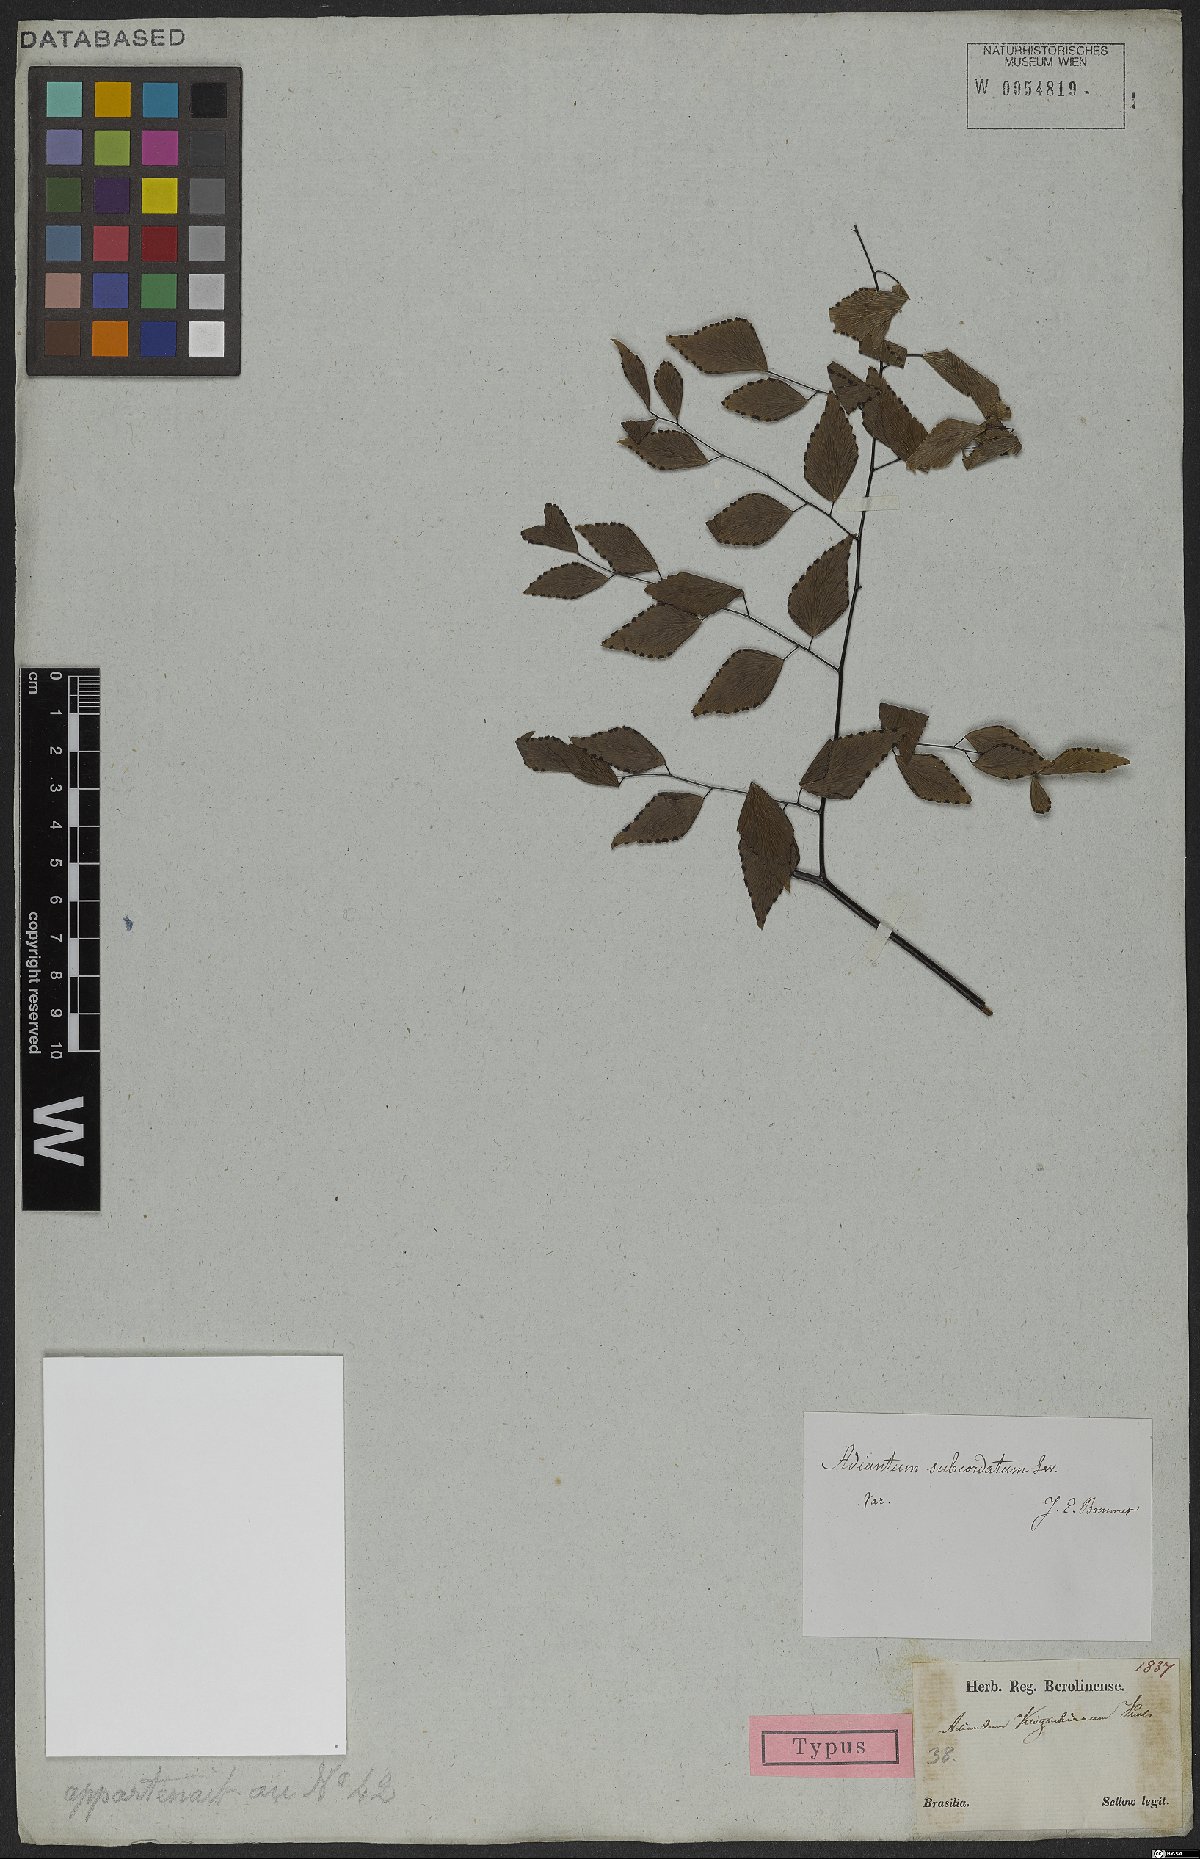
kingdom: Plantae
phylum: Tracheophyta
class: Polypodiopsida
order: Polypodiales
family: Pteridaceae
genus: Adiantum
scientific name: Adiantum subcordatum
